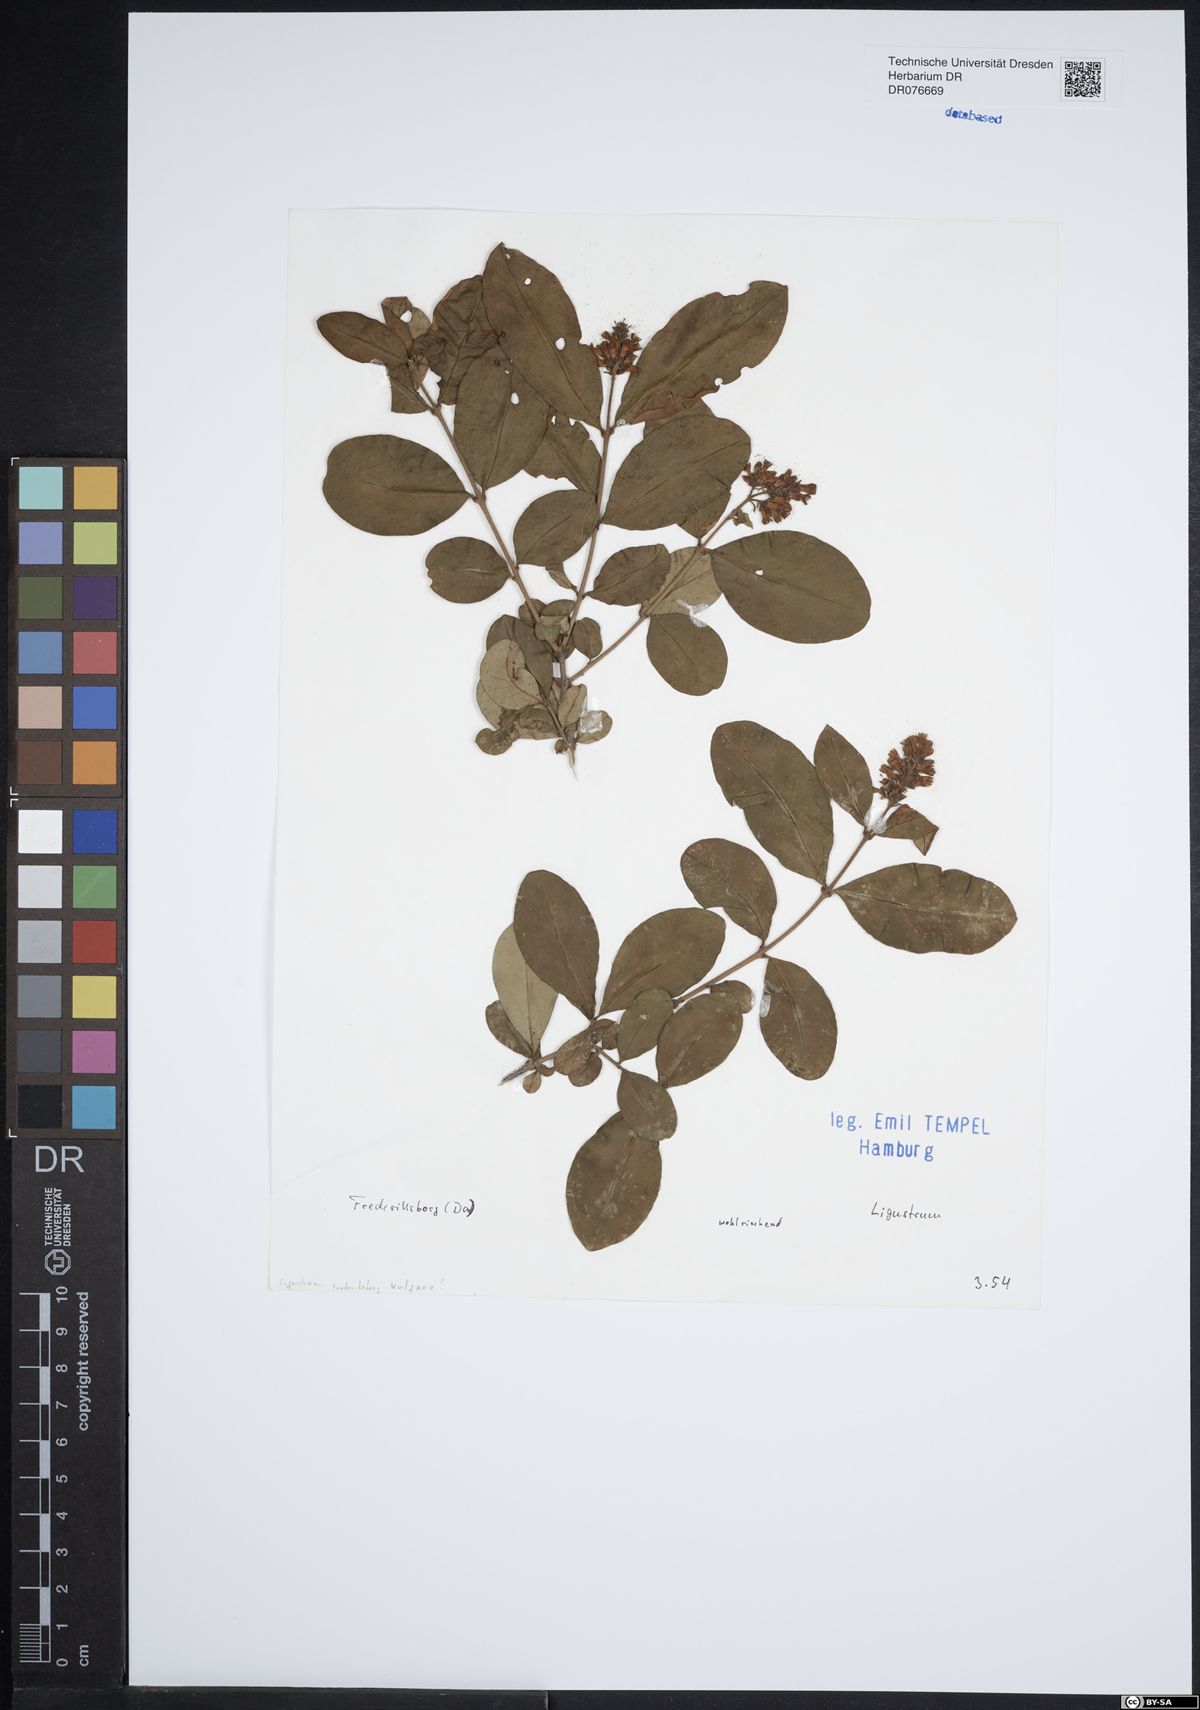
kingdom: Plantae
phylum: Tracheophyta
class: Magnoliopsida
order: Lamiales
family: Oleaceae
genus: Ligustrum
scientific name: Ligustrum
